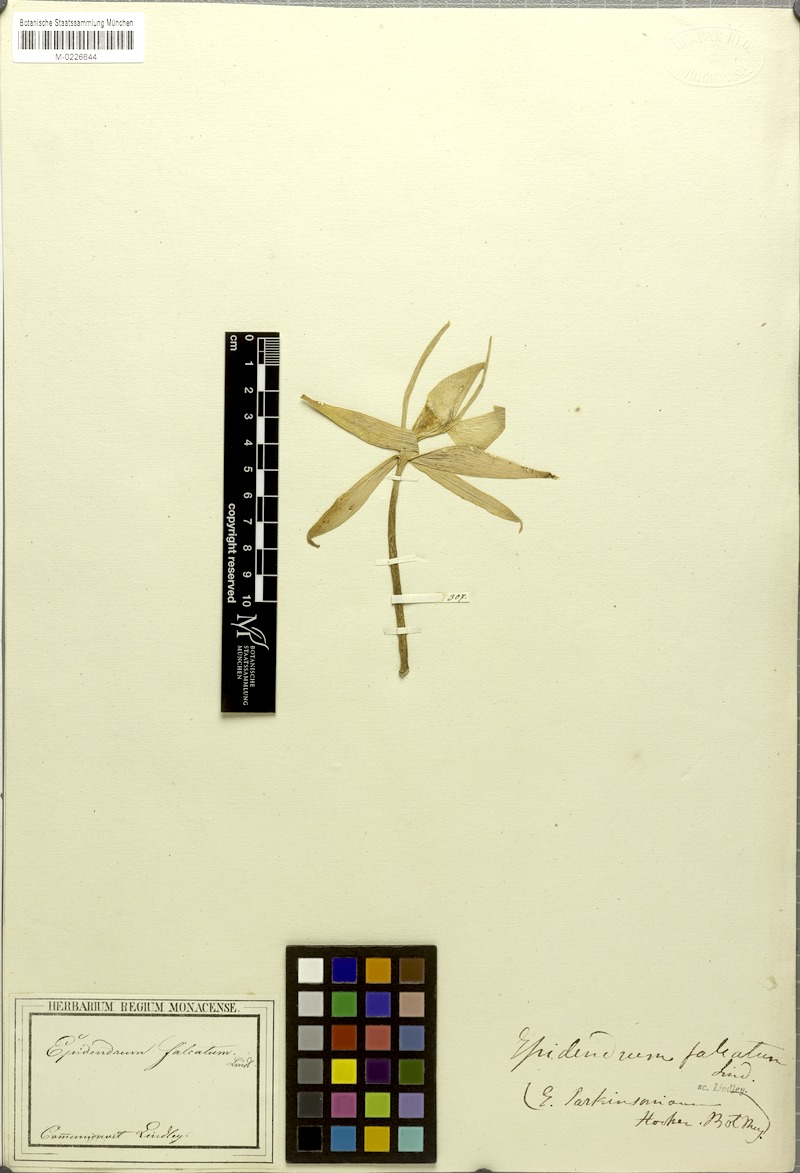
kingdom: Plantae
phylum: Tracheophyta
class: Liliopsida
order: Asparagales
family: Orchidaceae
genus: Epidendrum
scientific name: Epidendrum falcatum
